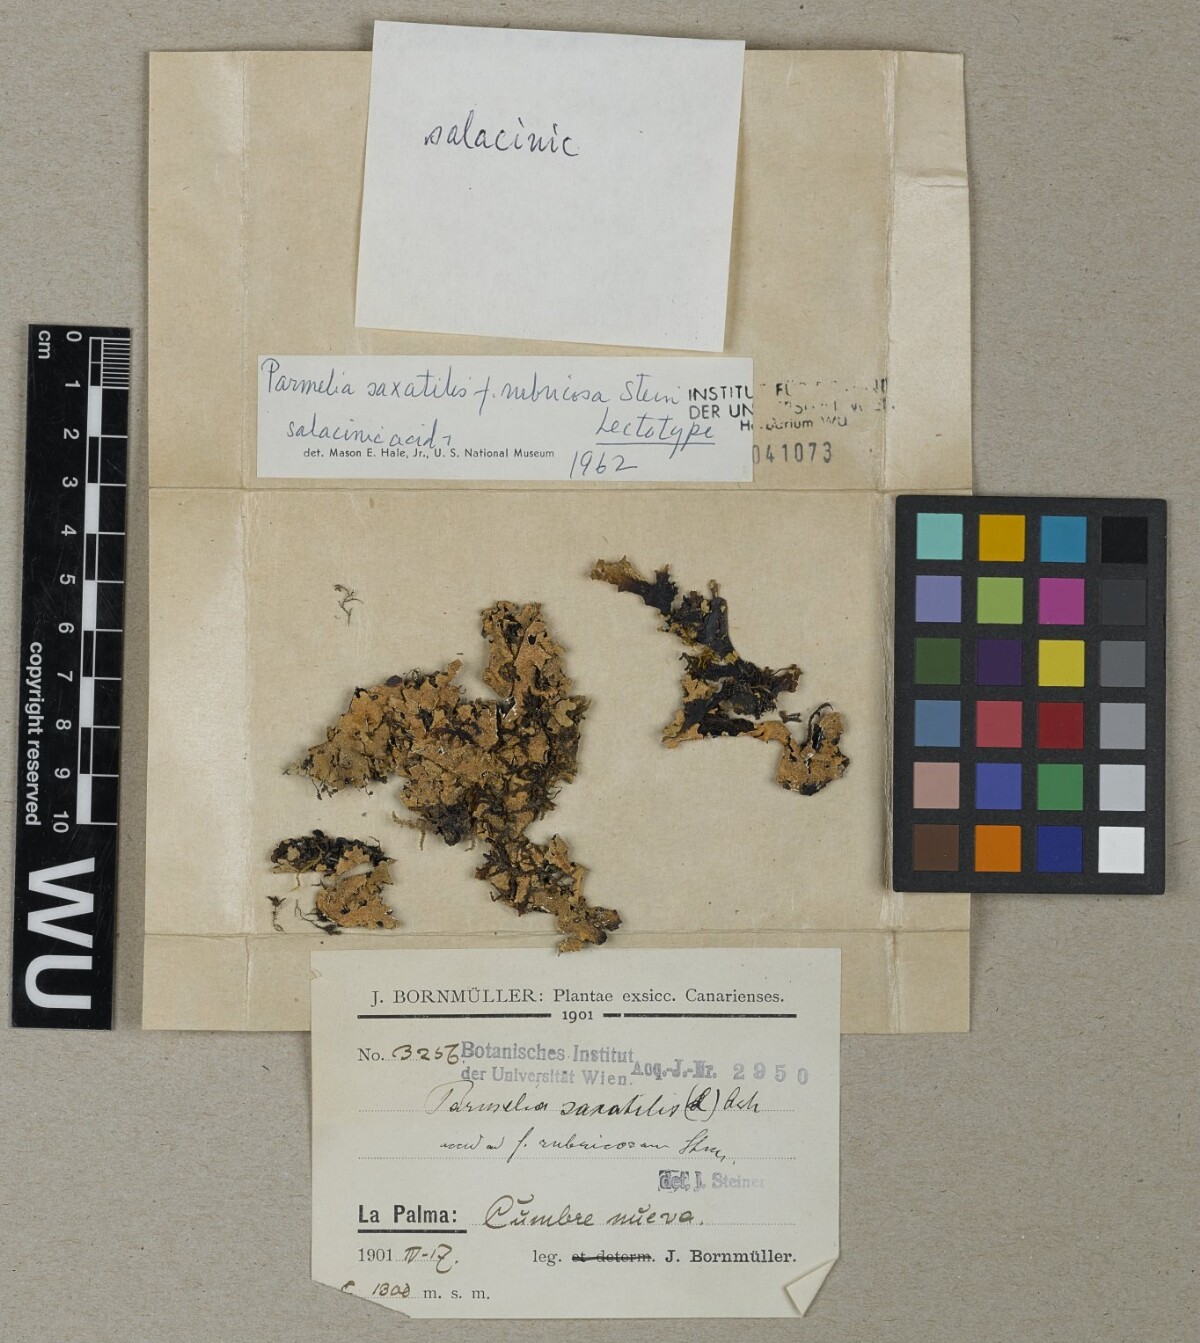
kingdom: Fungi
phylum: Ascomycota
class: Lecanoromycetes
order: Lecanorales
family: Parmeliaceae
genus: Parmelia
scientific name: Parmelia saxatilis
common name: Salted shield lichen
